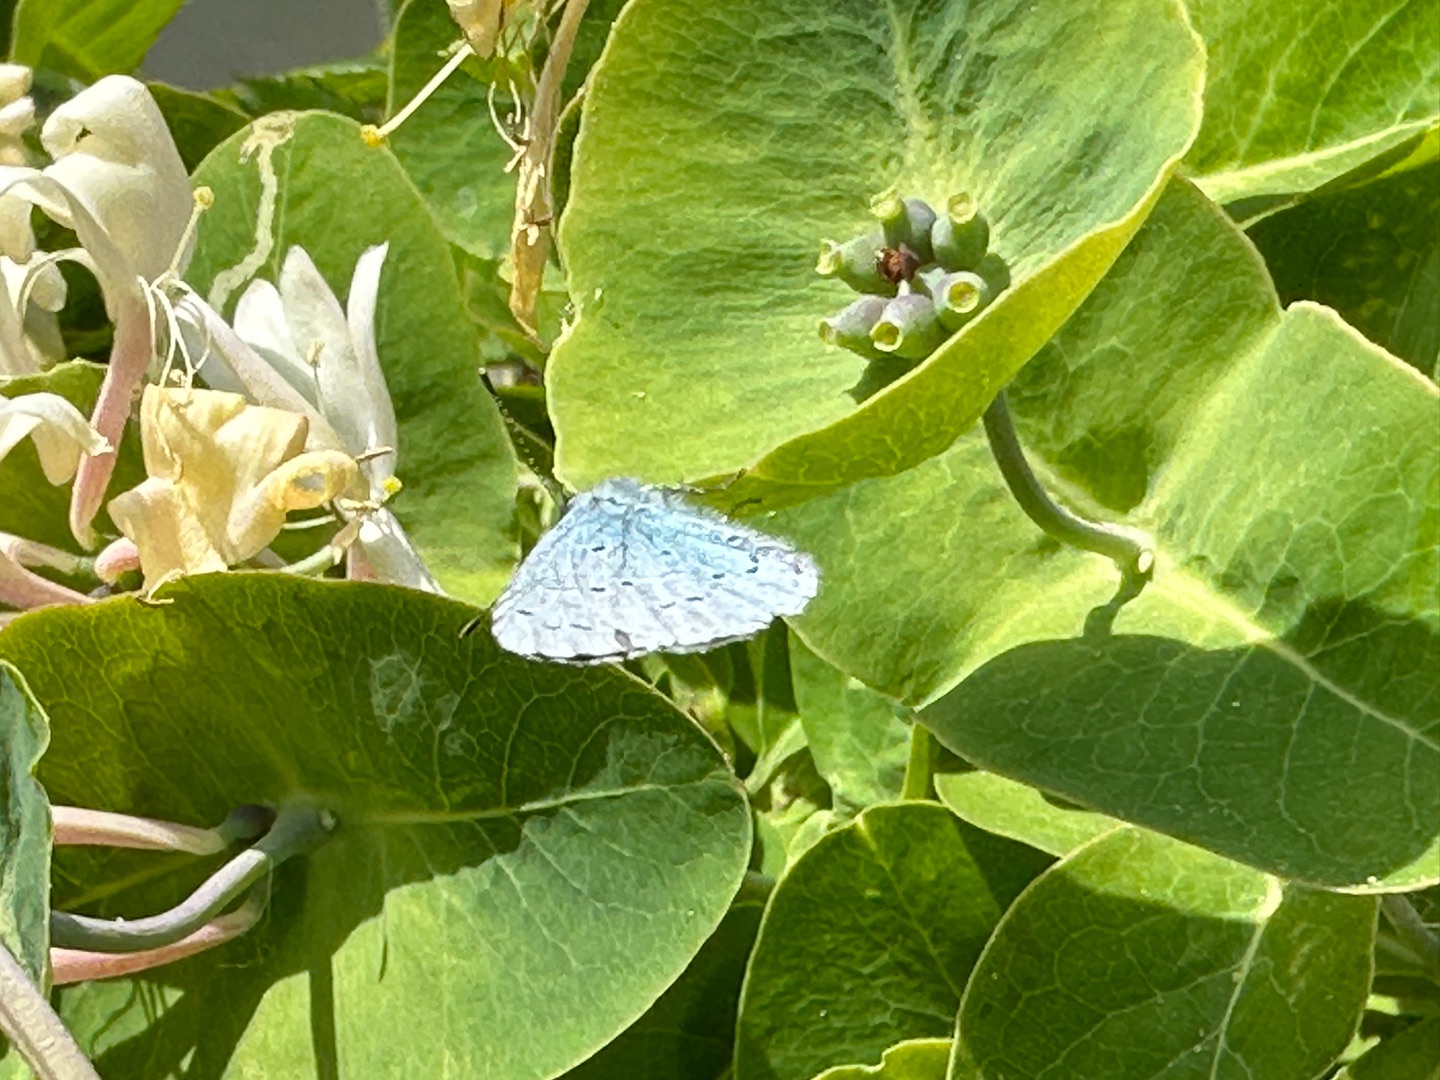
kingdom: Animalia
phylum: Arthropoda
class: Insecta
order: Lepidoptera
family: Lycaenidae
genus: Celastrina
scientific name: Celastrina argiolus
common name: Skovblåfugl
